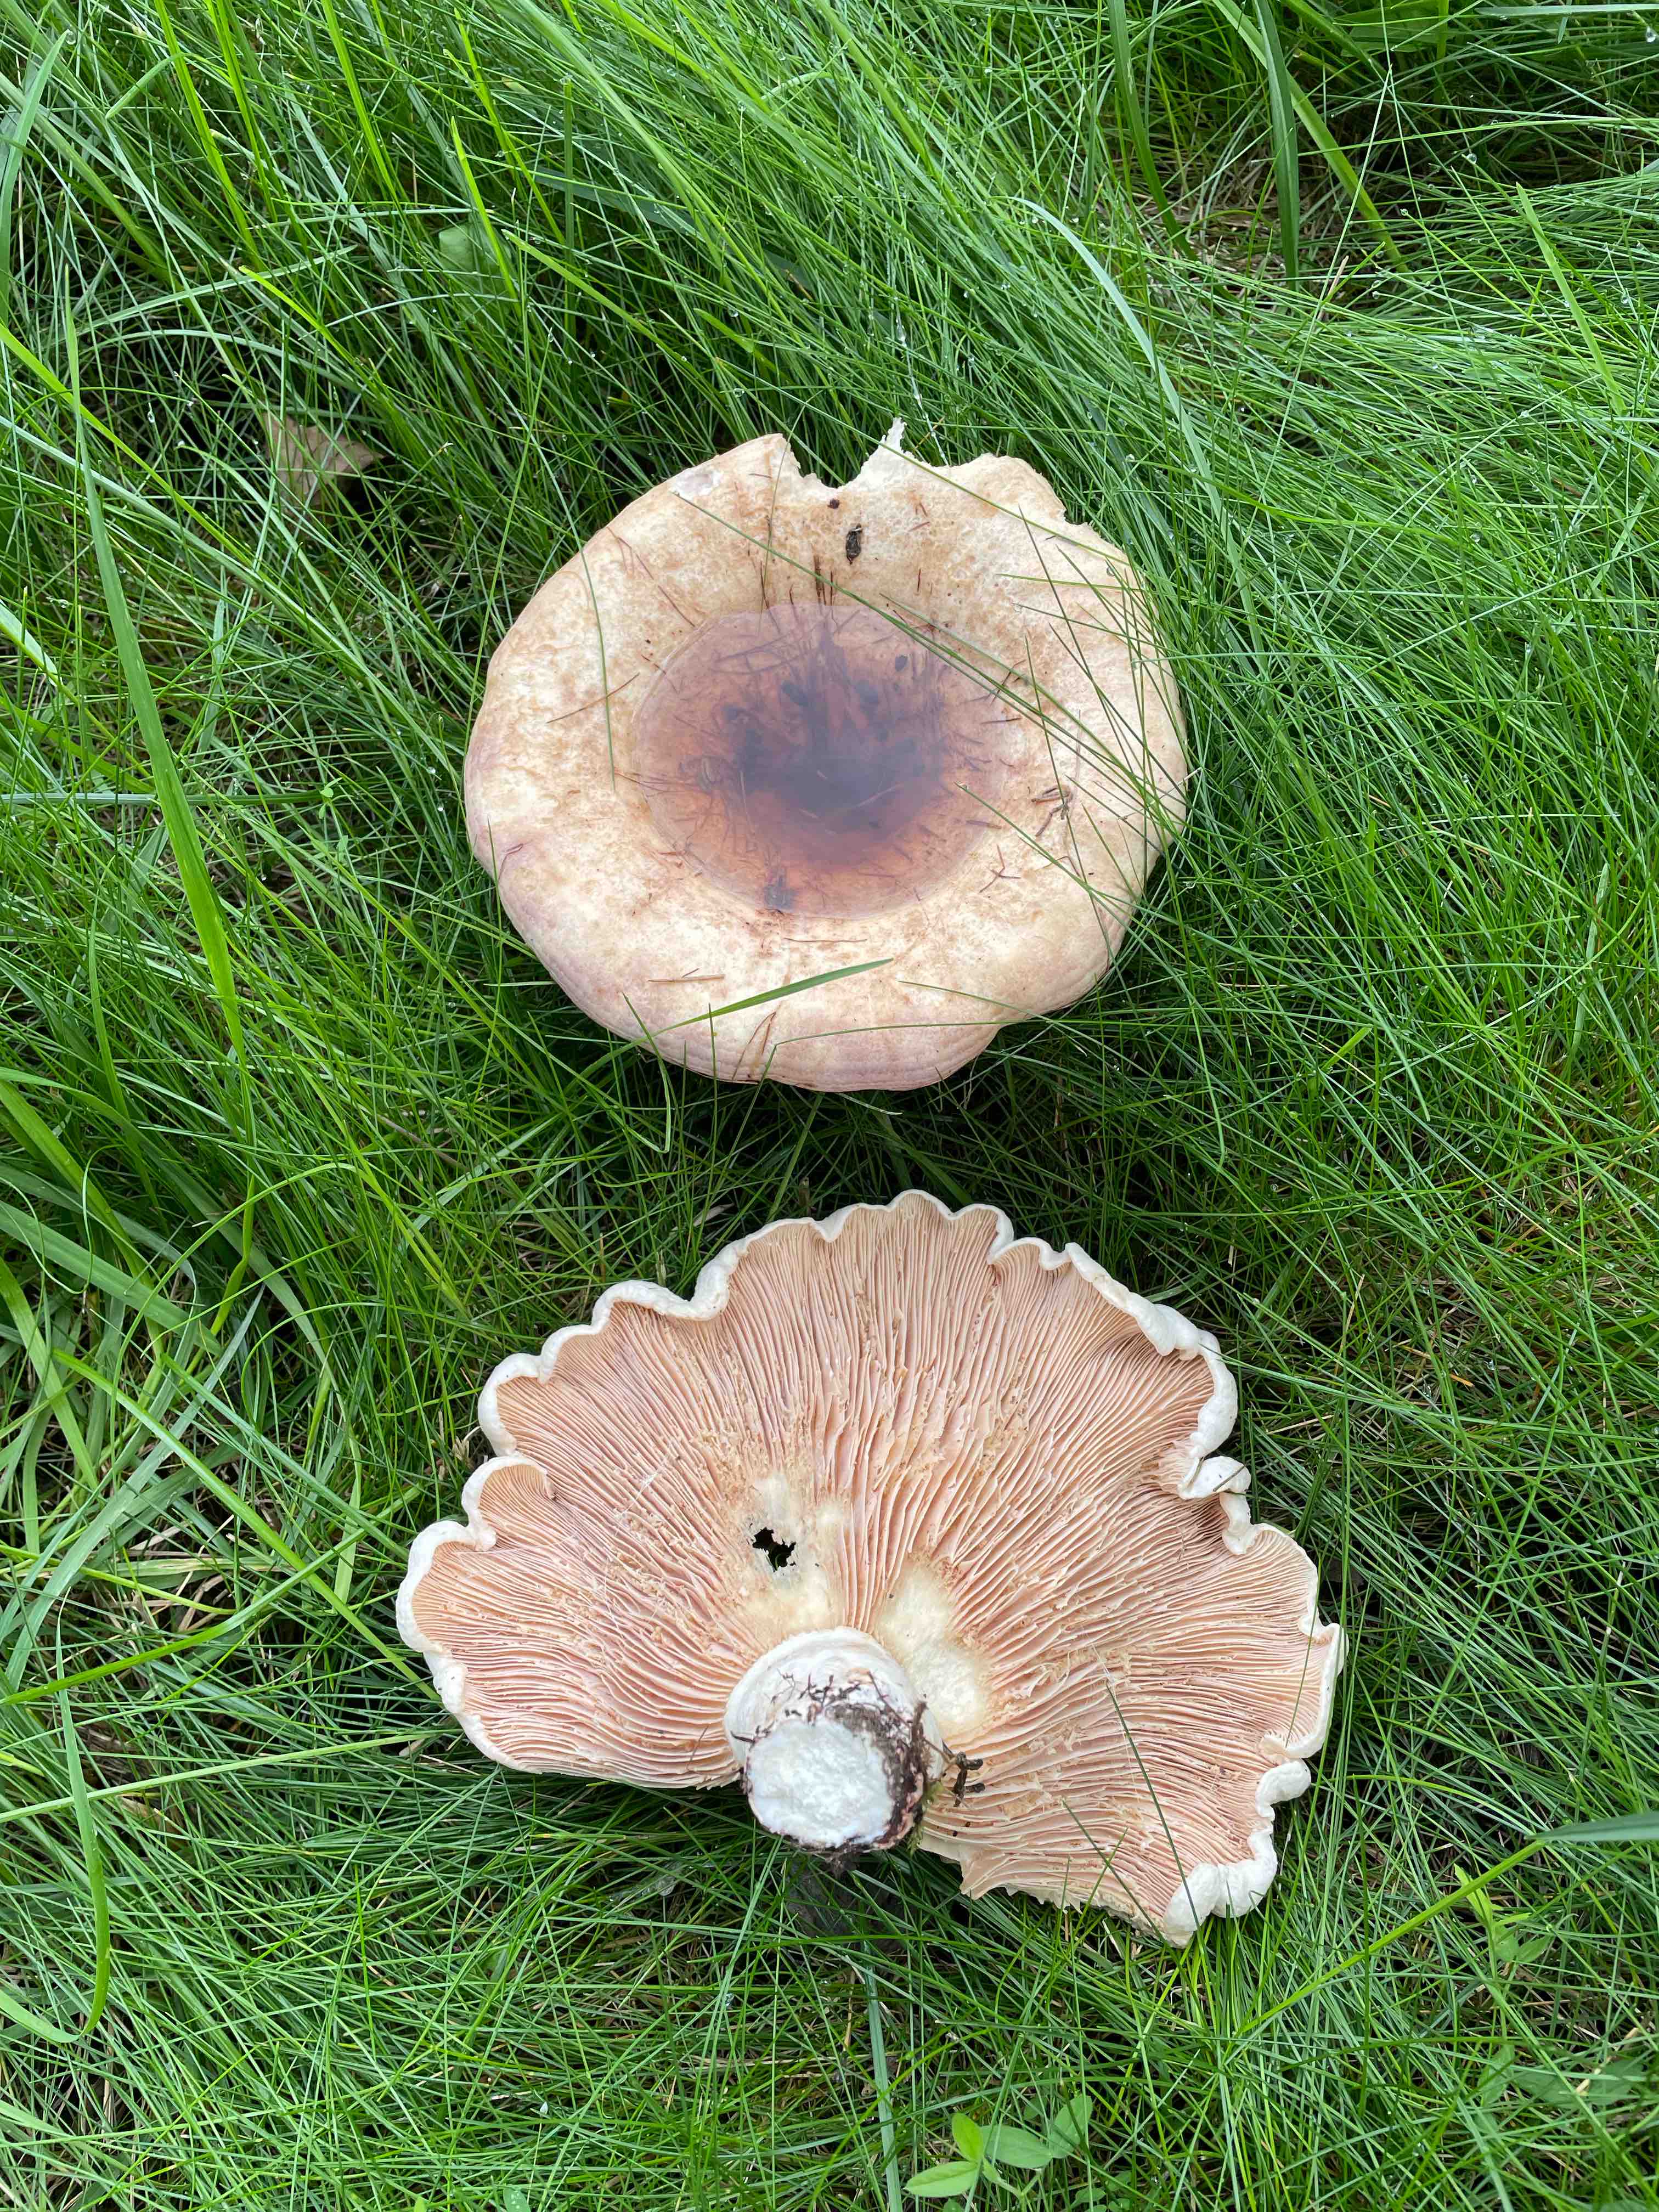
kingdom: Fungi
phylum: Basidiomycota
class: Agaricomycetes
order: Russulales
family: Russulaceae
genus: Lactarius
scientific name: Lactarius controversus
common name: rosabladet mælkehat
